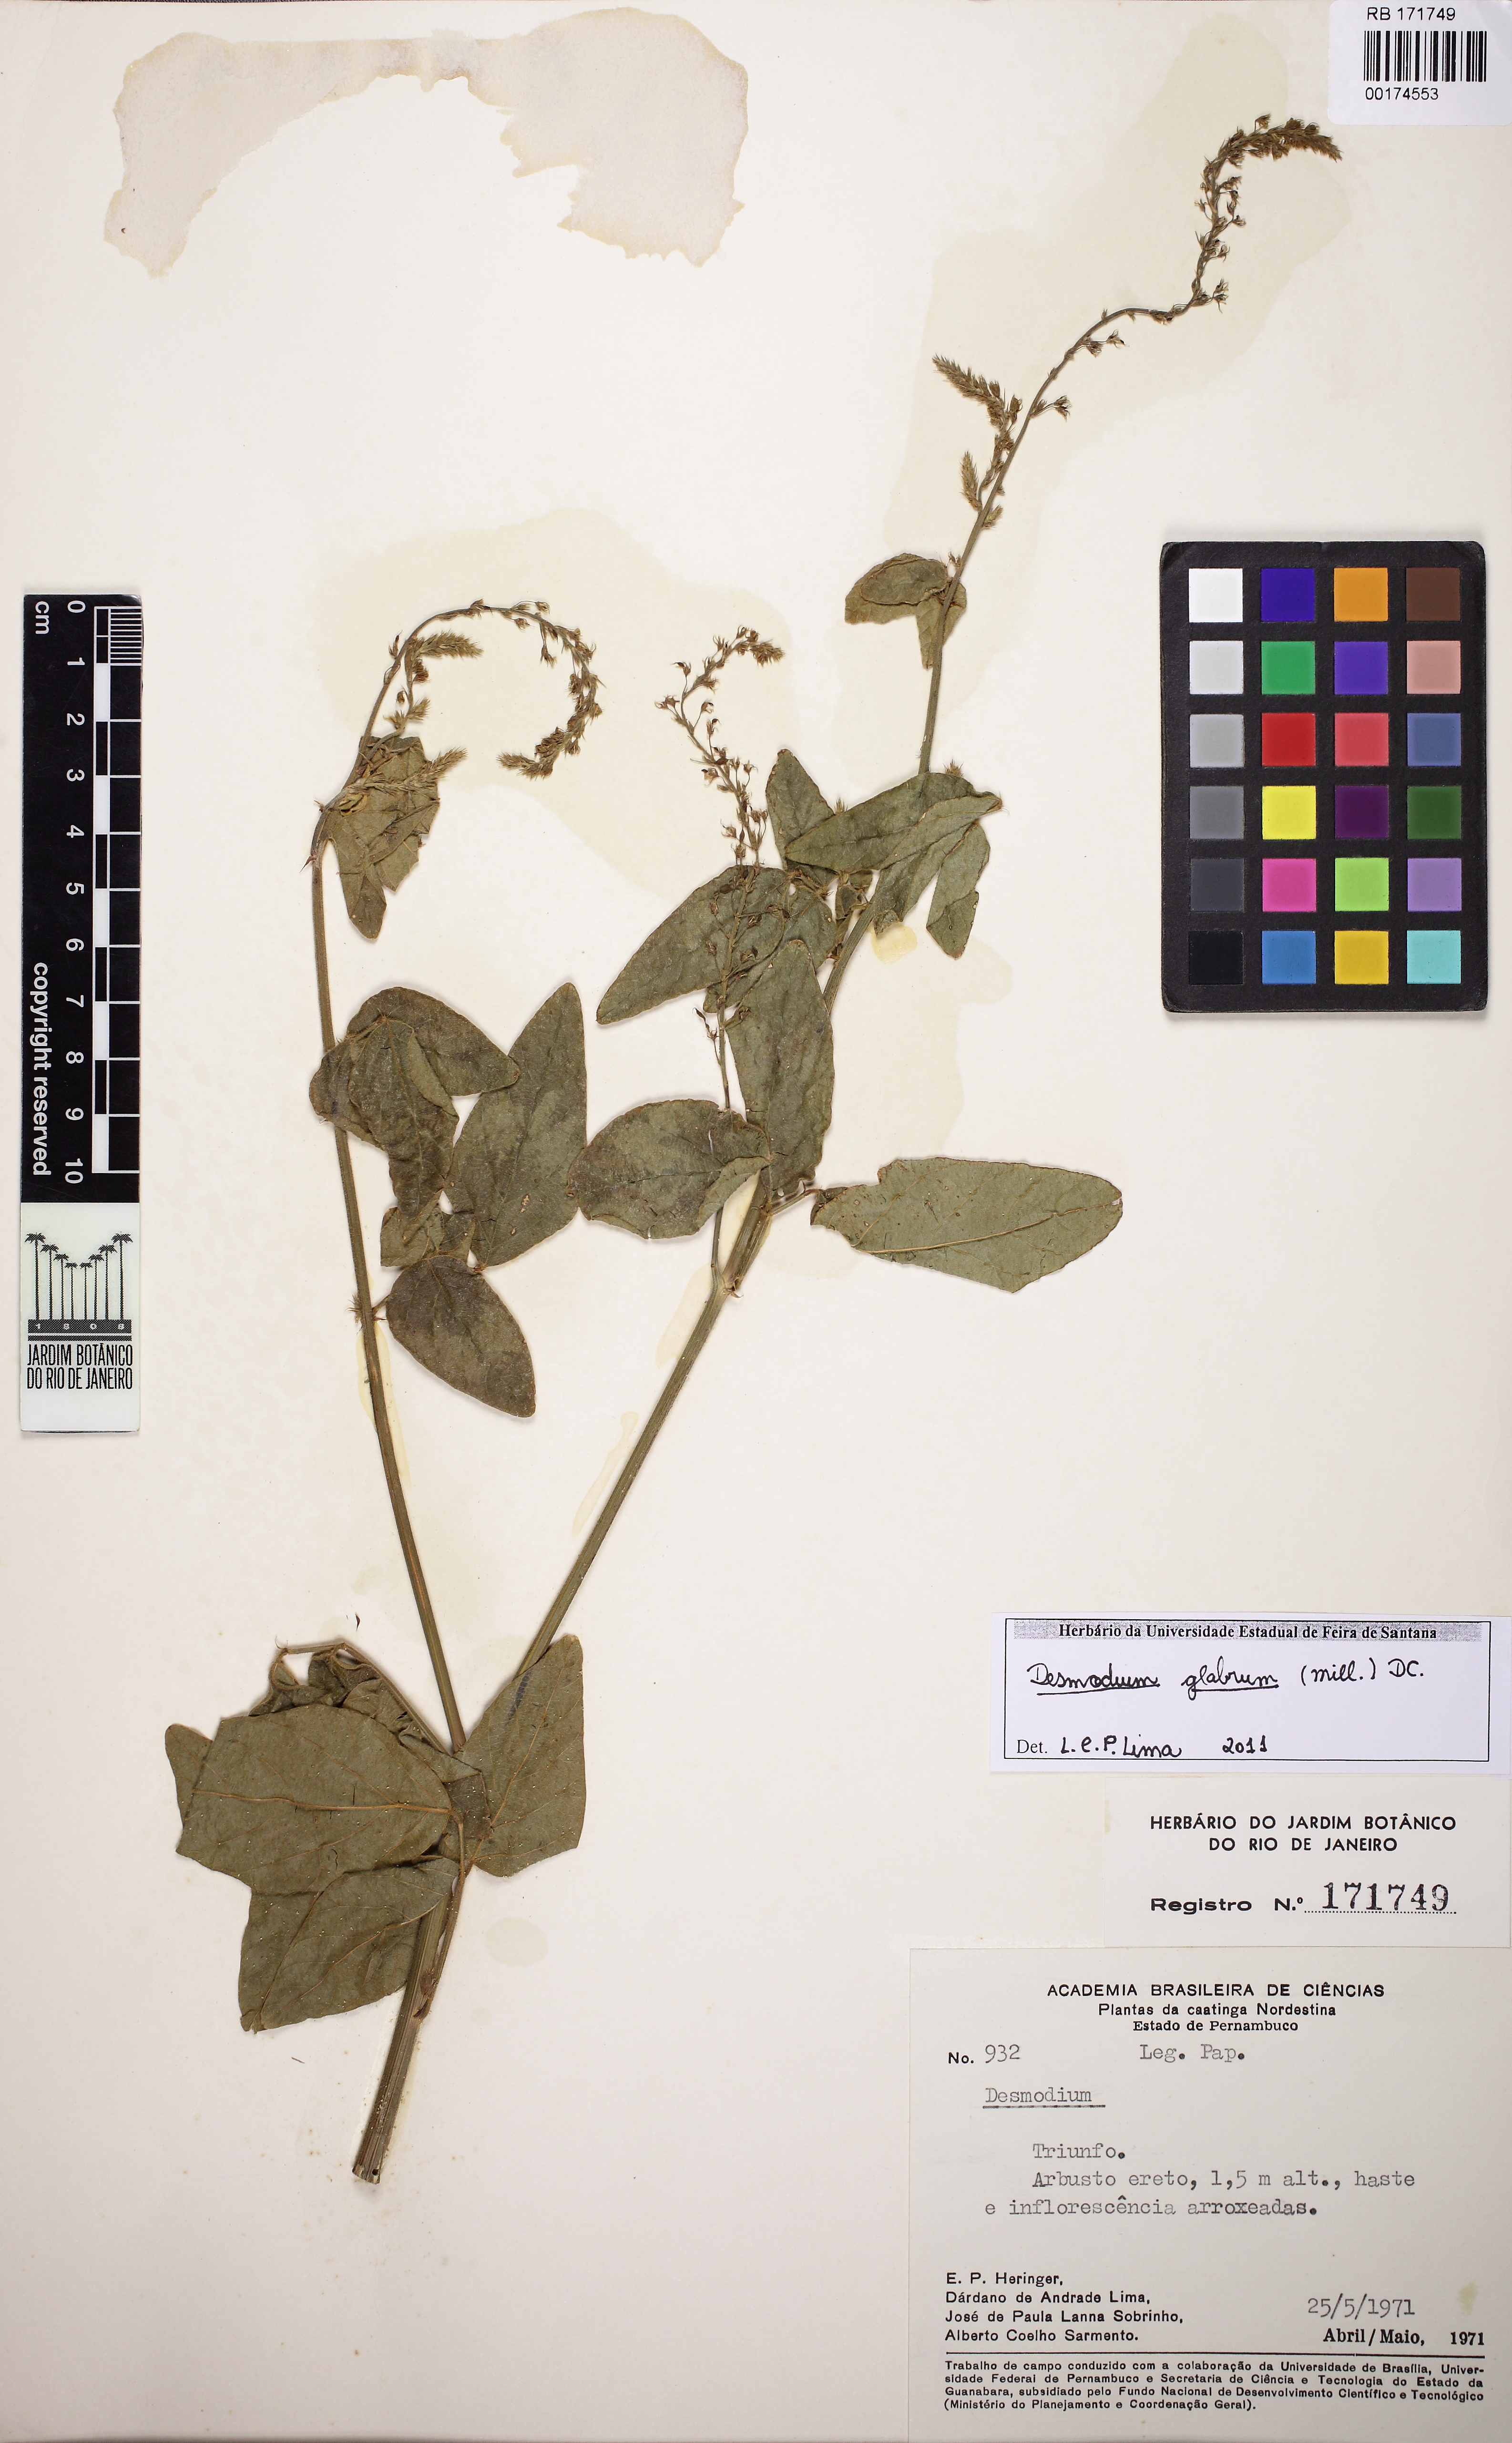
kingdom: Plantae
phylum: Tracheophyta
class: Magnoliopsida
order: Fabales
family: Fabaceae
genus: Desmodium
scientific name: Desmodium glabrum
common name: Zarzabacoa dulce
